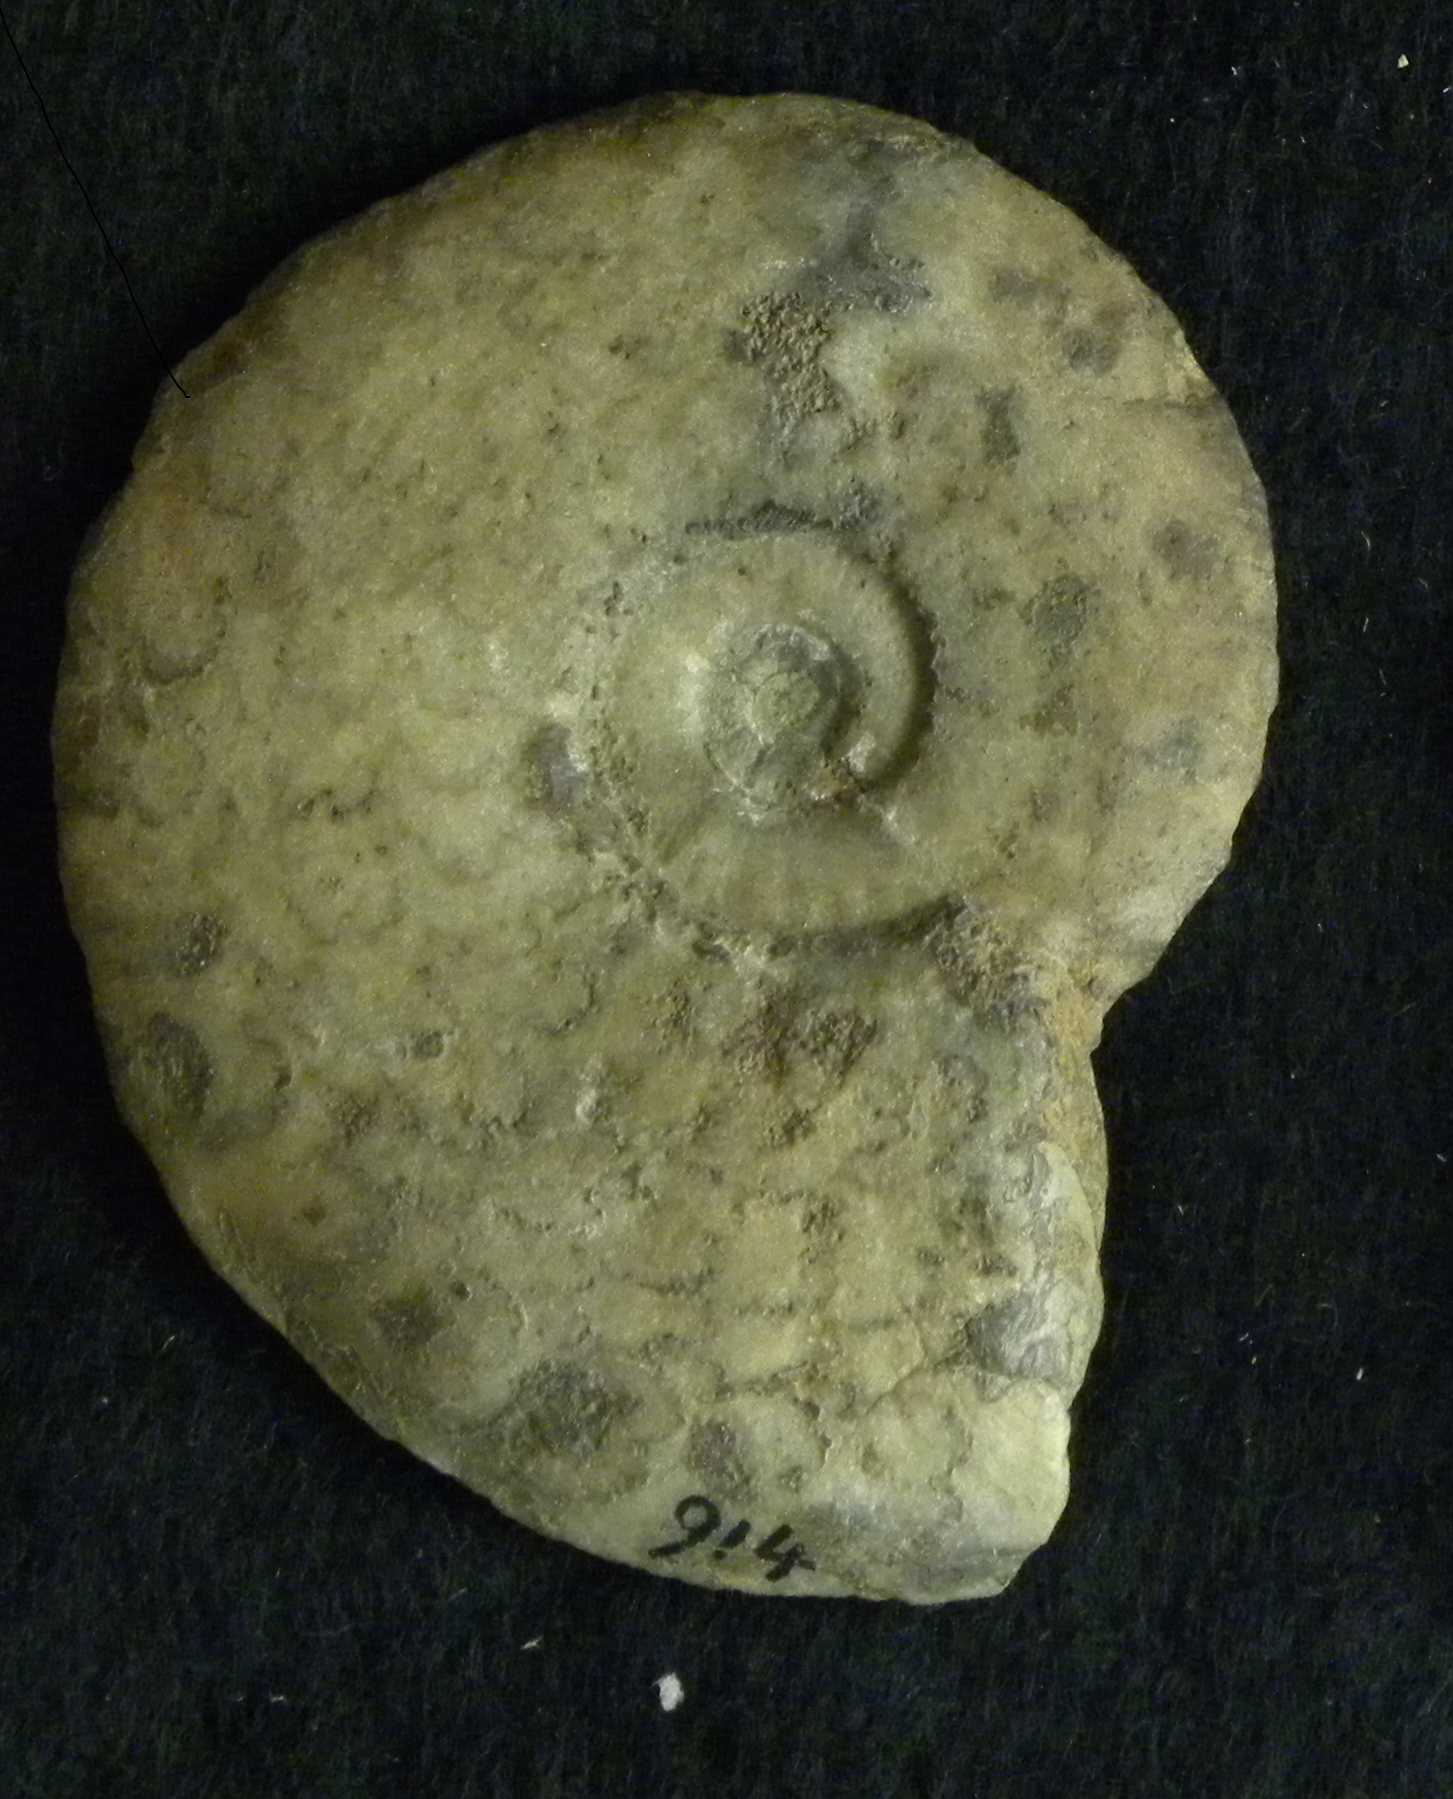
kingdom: Animalia
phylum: Mollusca
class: Cephalopoda
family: Hildoceratidae
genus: Pleydellia
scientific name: Pleydellia buckmani
